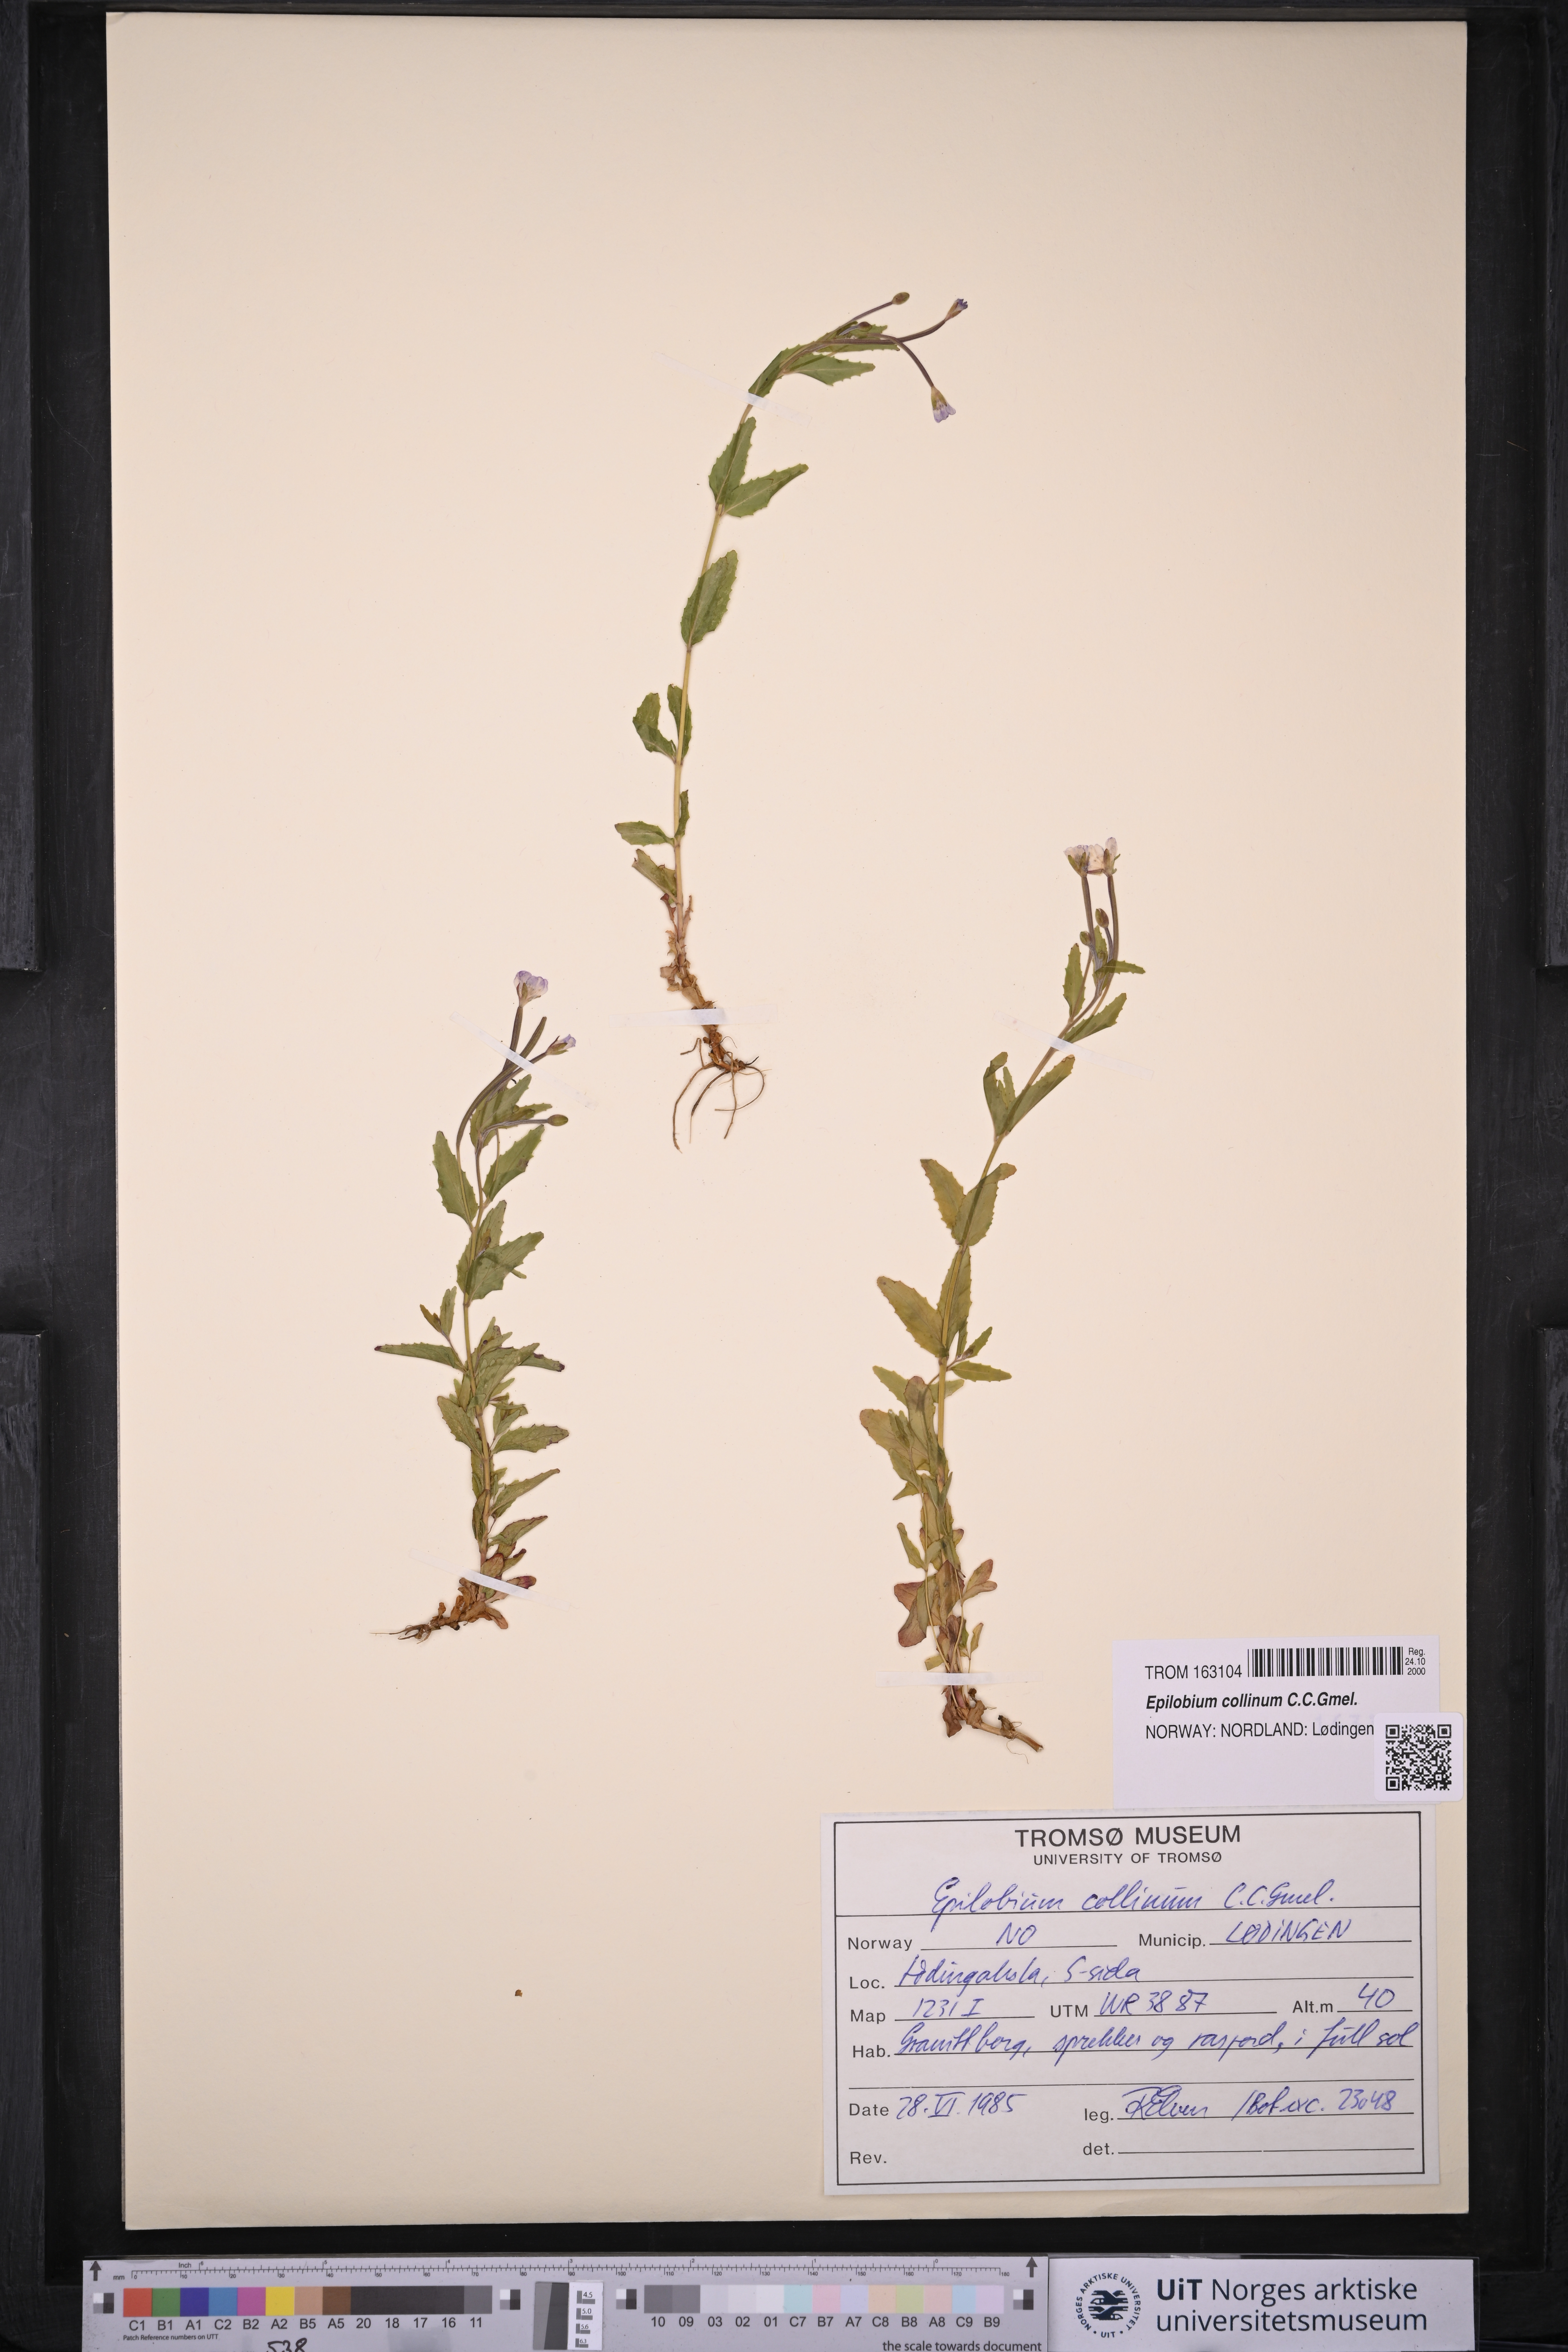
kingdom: Plantae
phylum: Tracheophyta
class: Magnoliopsida
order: Myrtales
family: Onagraceae
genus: Epilobium
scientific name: Epilobium collinum
